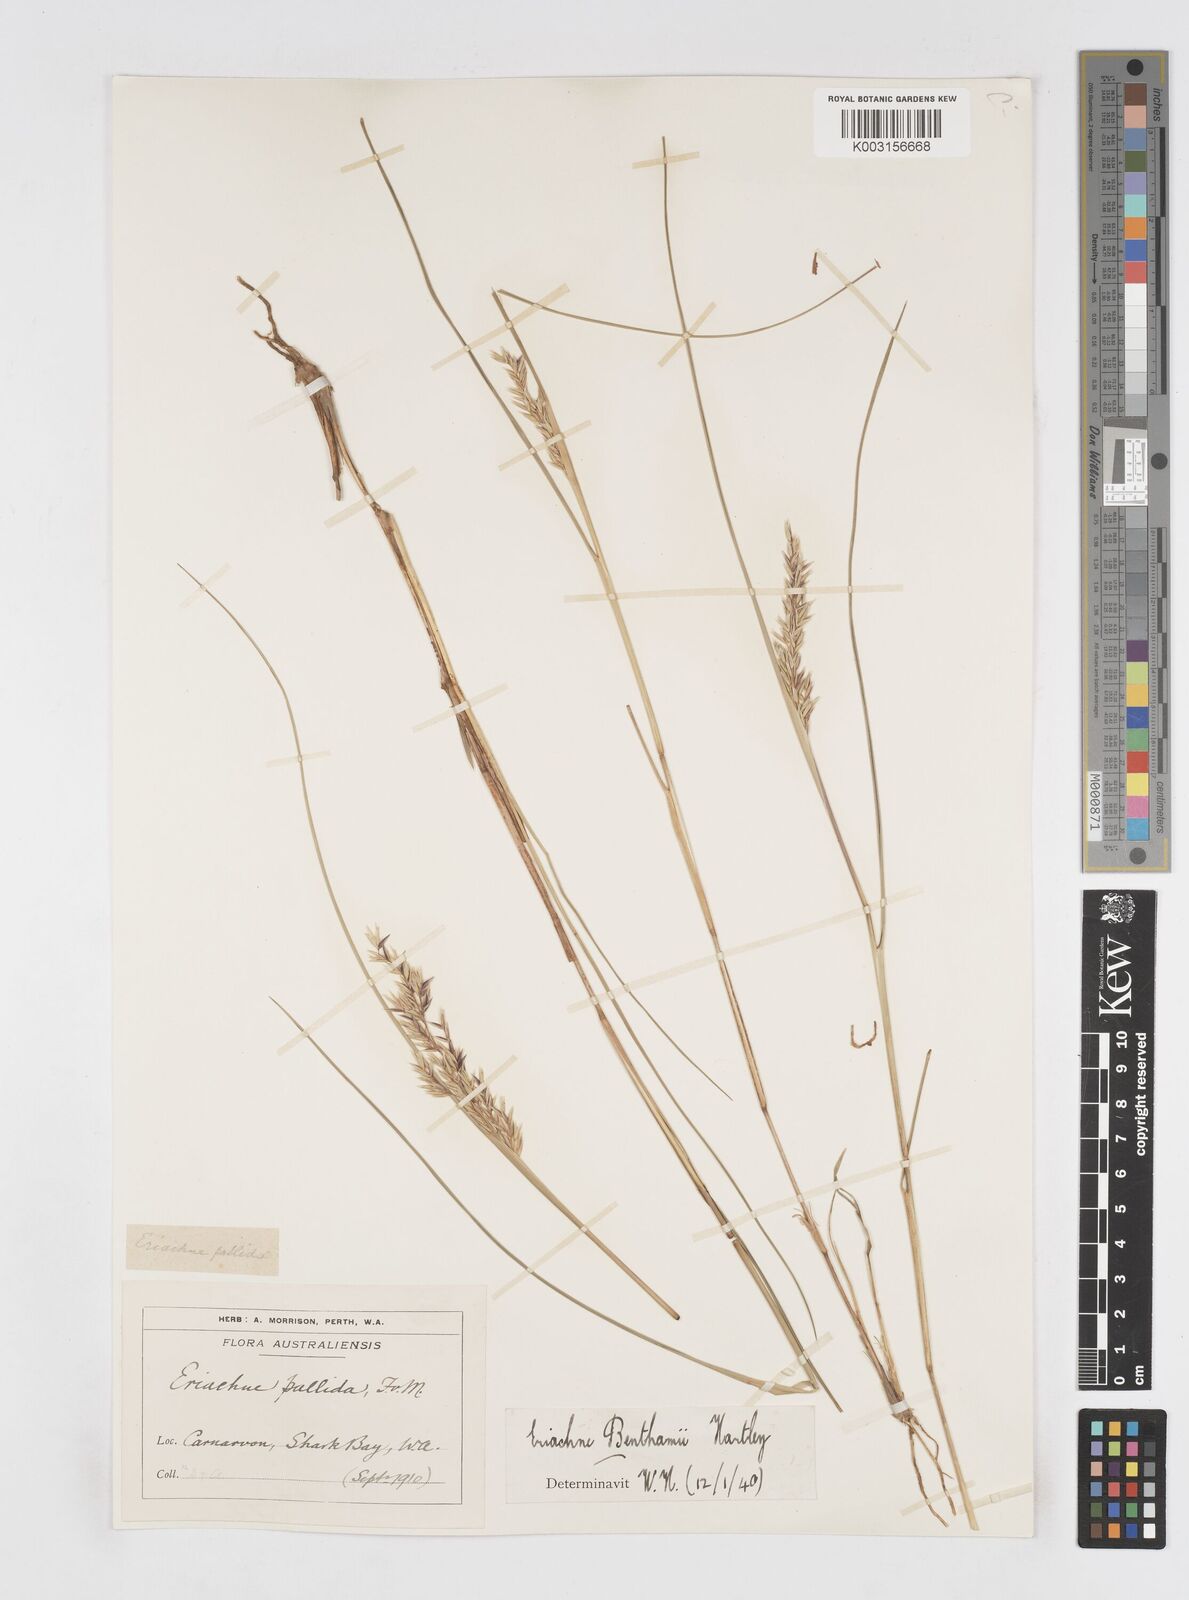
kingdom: Plantae
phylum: Tracheophyta
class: Liliopsida
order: Poales
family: Poaceae
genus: Eriachne
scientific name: Eriachne benthamii
